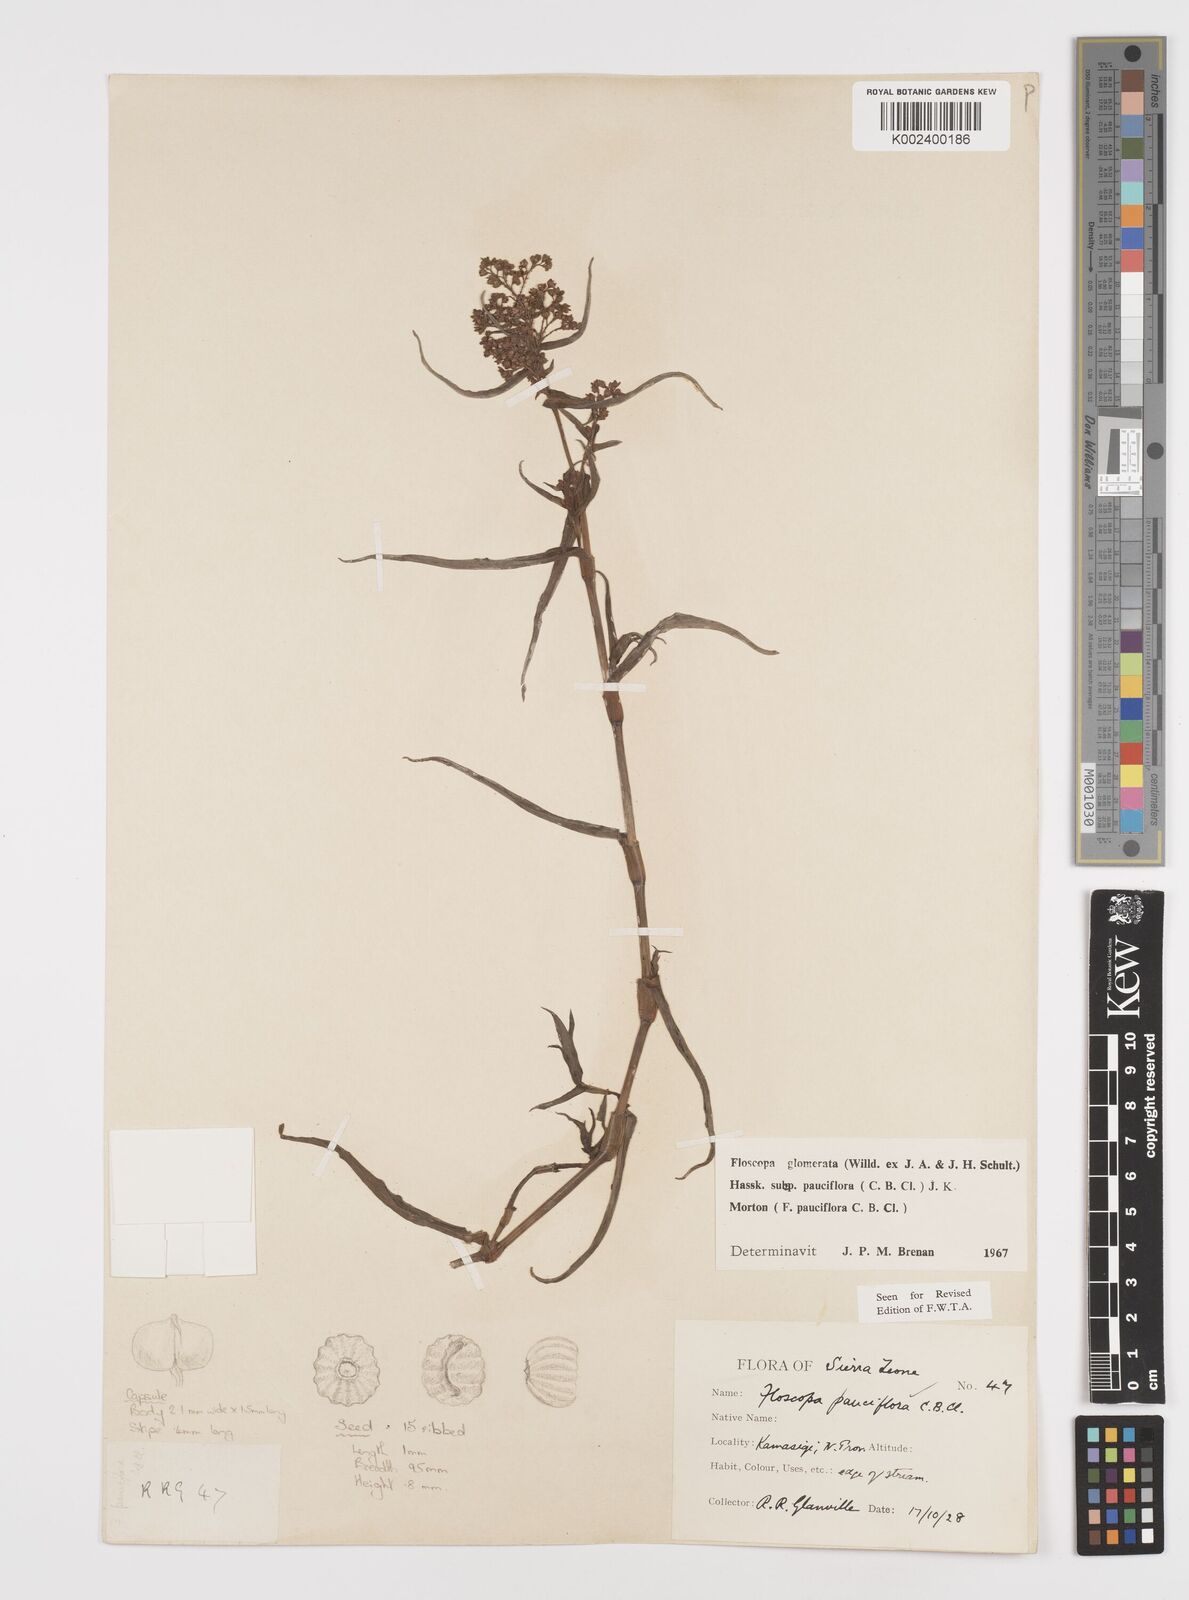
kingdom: Plantae
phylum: Tracheophyta
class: Liliopsida
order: Commelinales
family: Commelinaceae
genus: Floscopa
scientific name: Floscopa glomerata
